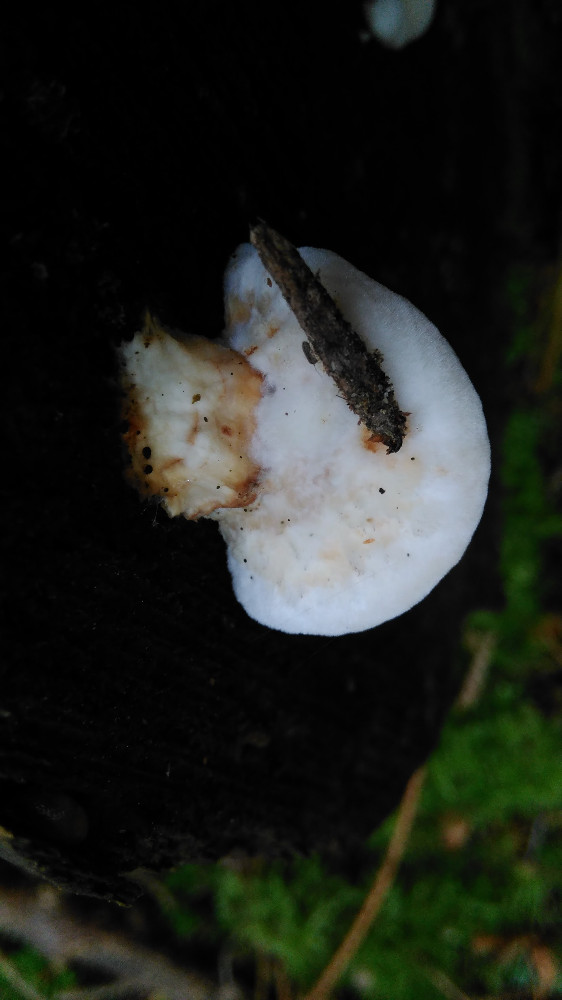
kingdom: Fungi
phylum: Basidiomycota
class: Agaricomycetes
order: Polyporales
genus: Fuscopostia
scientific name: Fuscopostia fragilis
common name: brunende kødporesvamp
